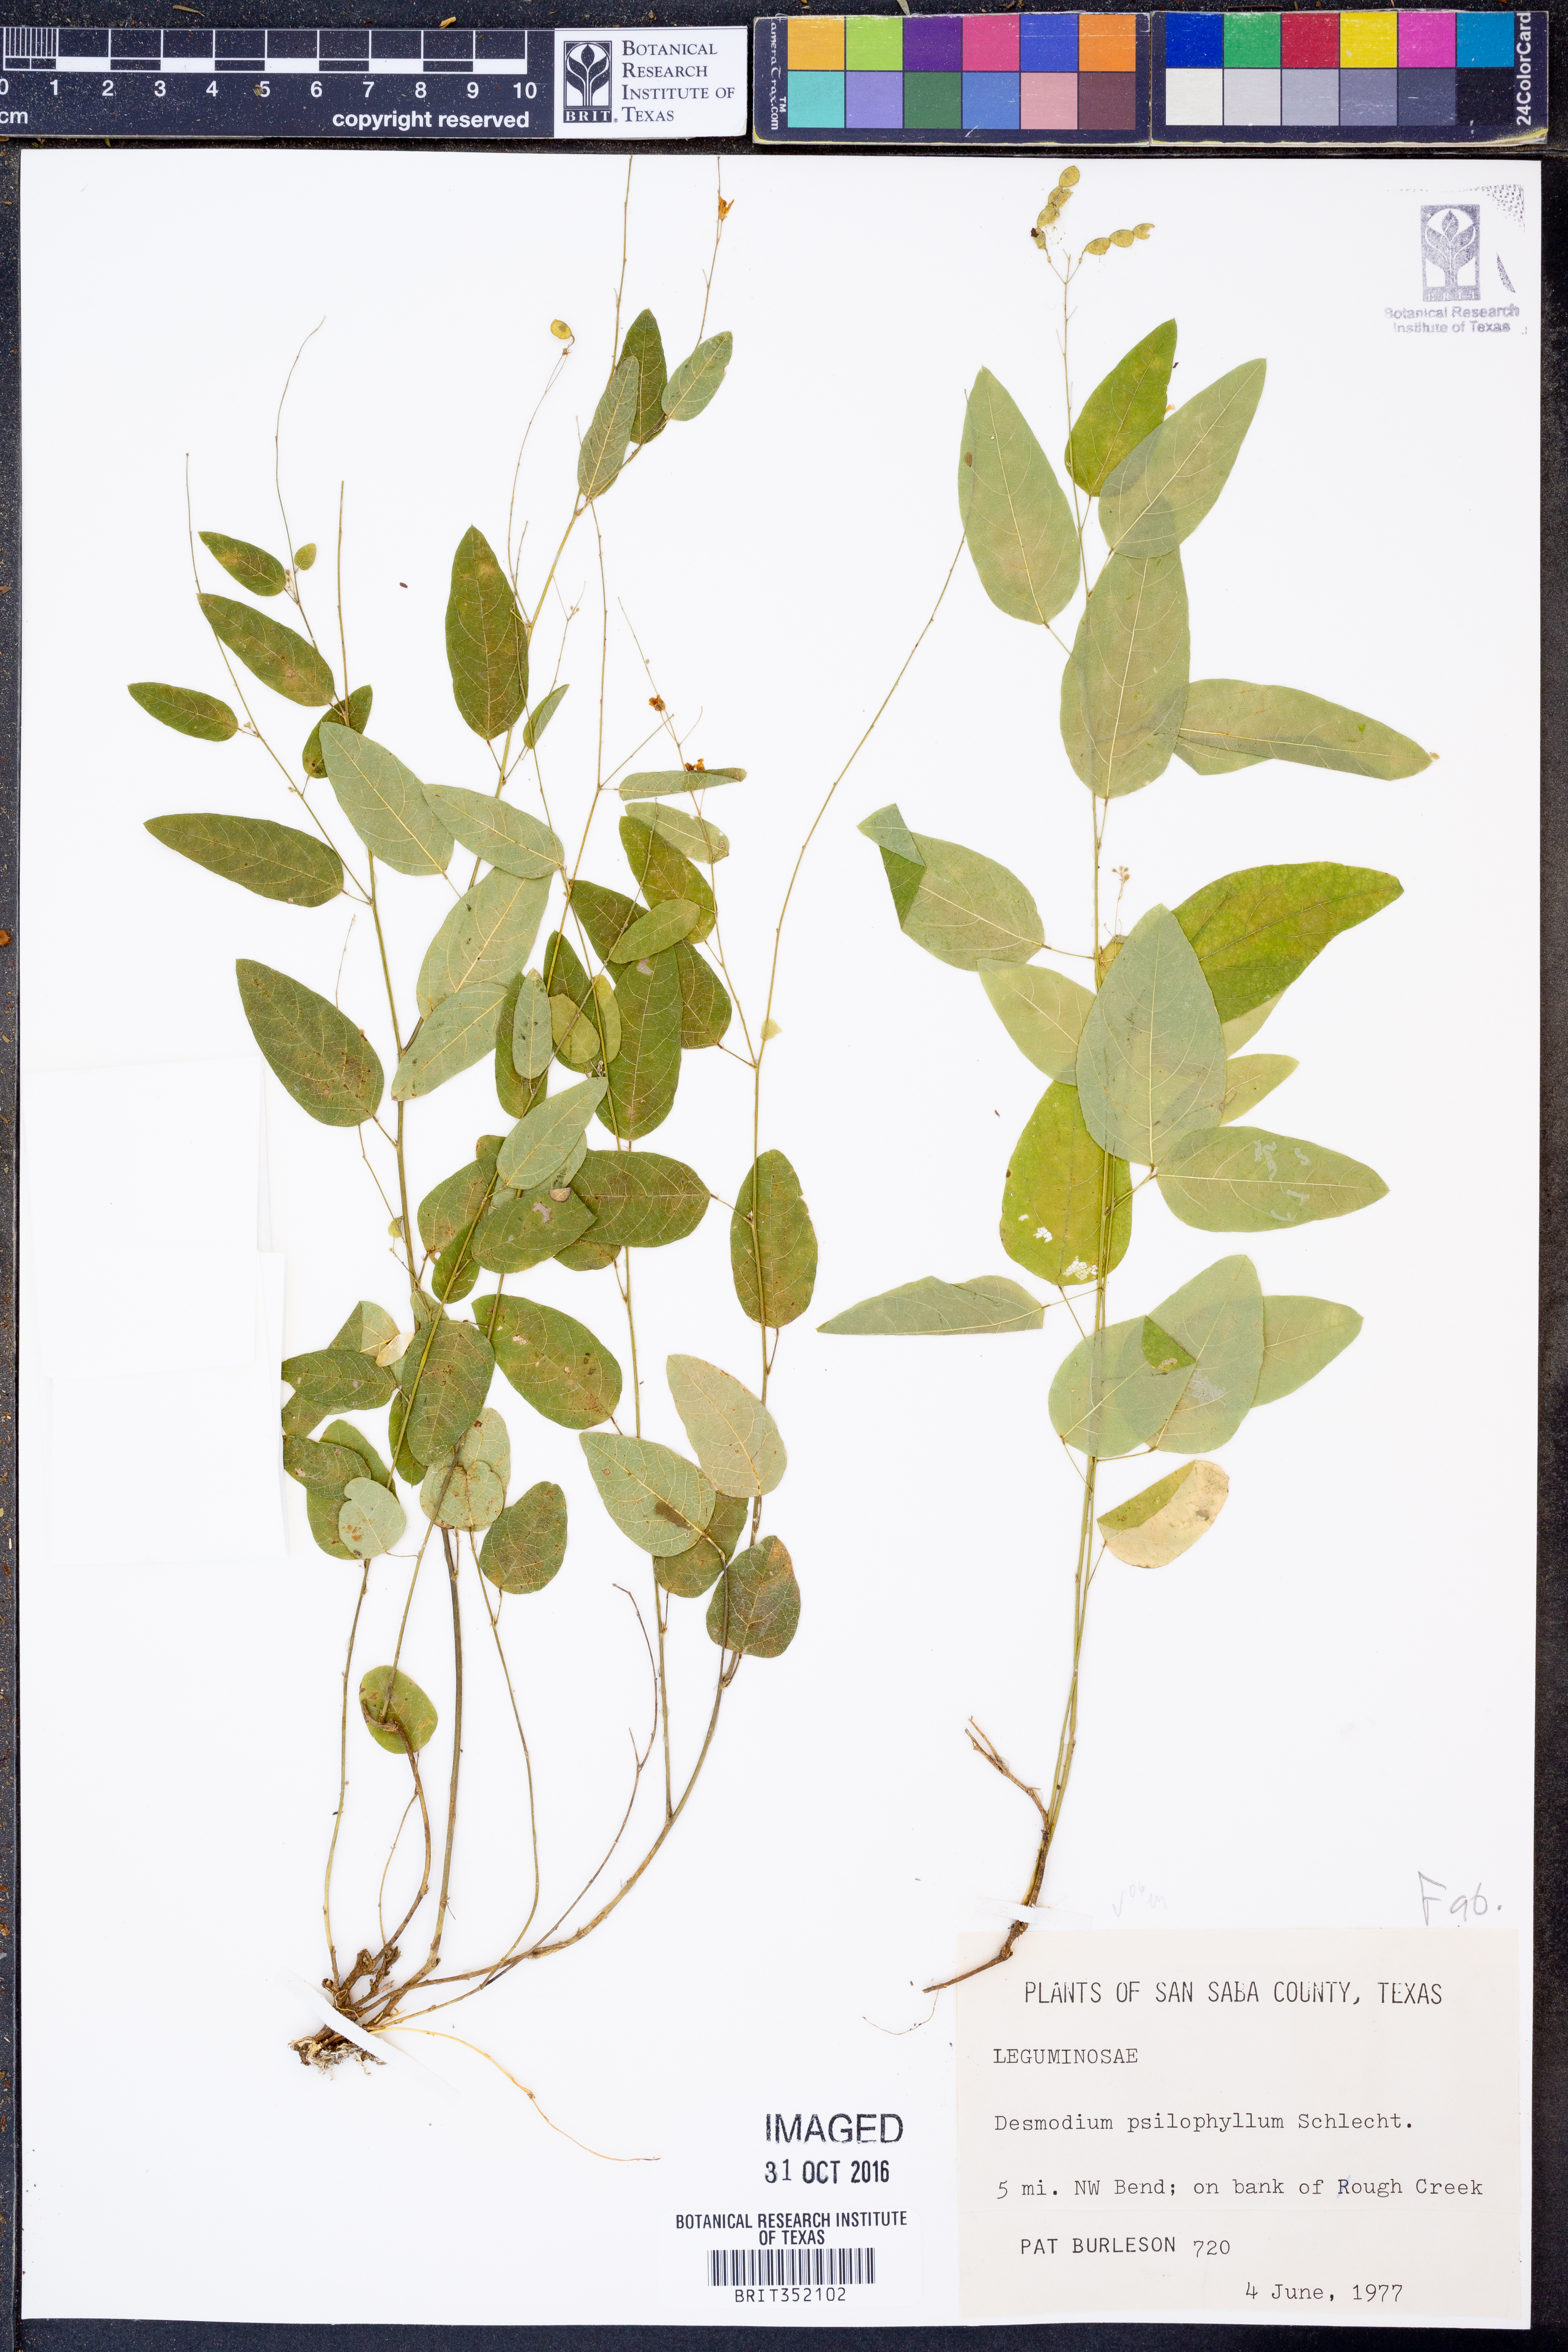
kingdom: Plantae
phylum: Tracheophyta
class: Magnoliopsida
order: Fabales
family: Fabaceae
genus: Desmodium
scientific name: Desmodium psilophyllum
